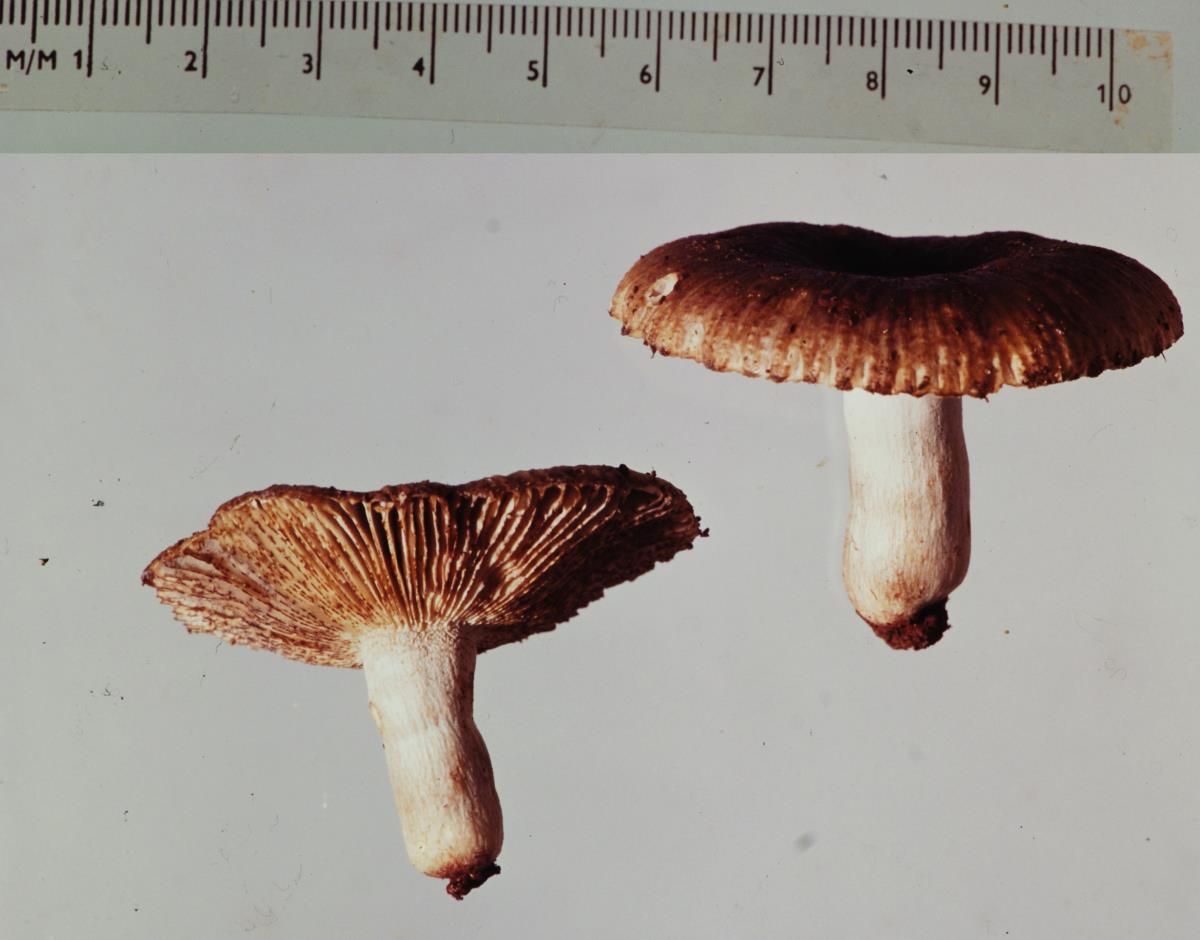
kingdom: Fungi
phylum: Basidiomycota
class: Agaricomycetes
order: Russulales
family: Russulaceae
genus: Russula
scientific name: Russula vinaceocuticulata
